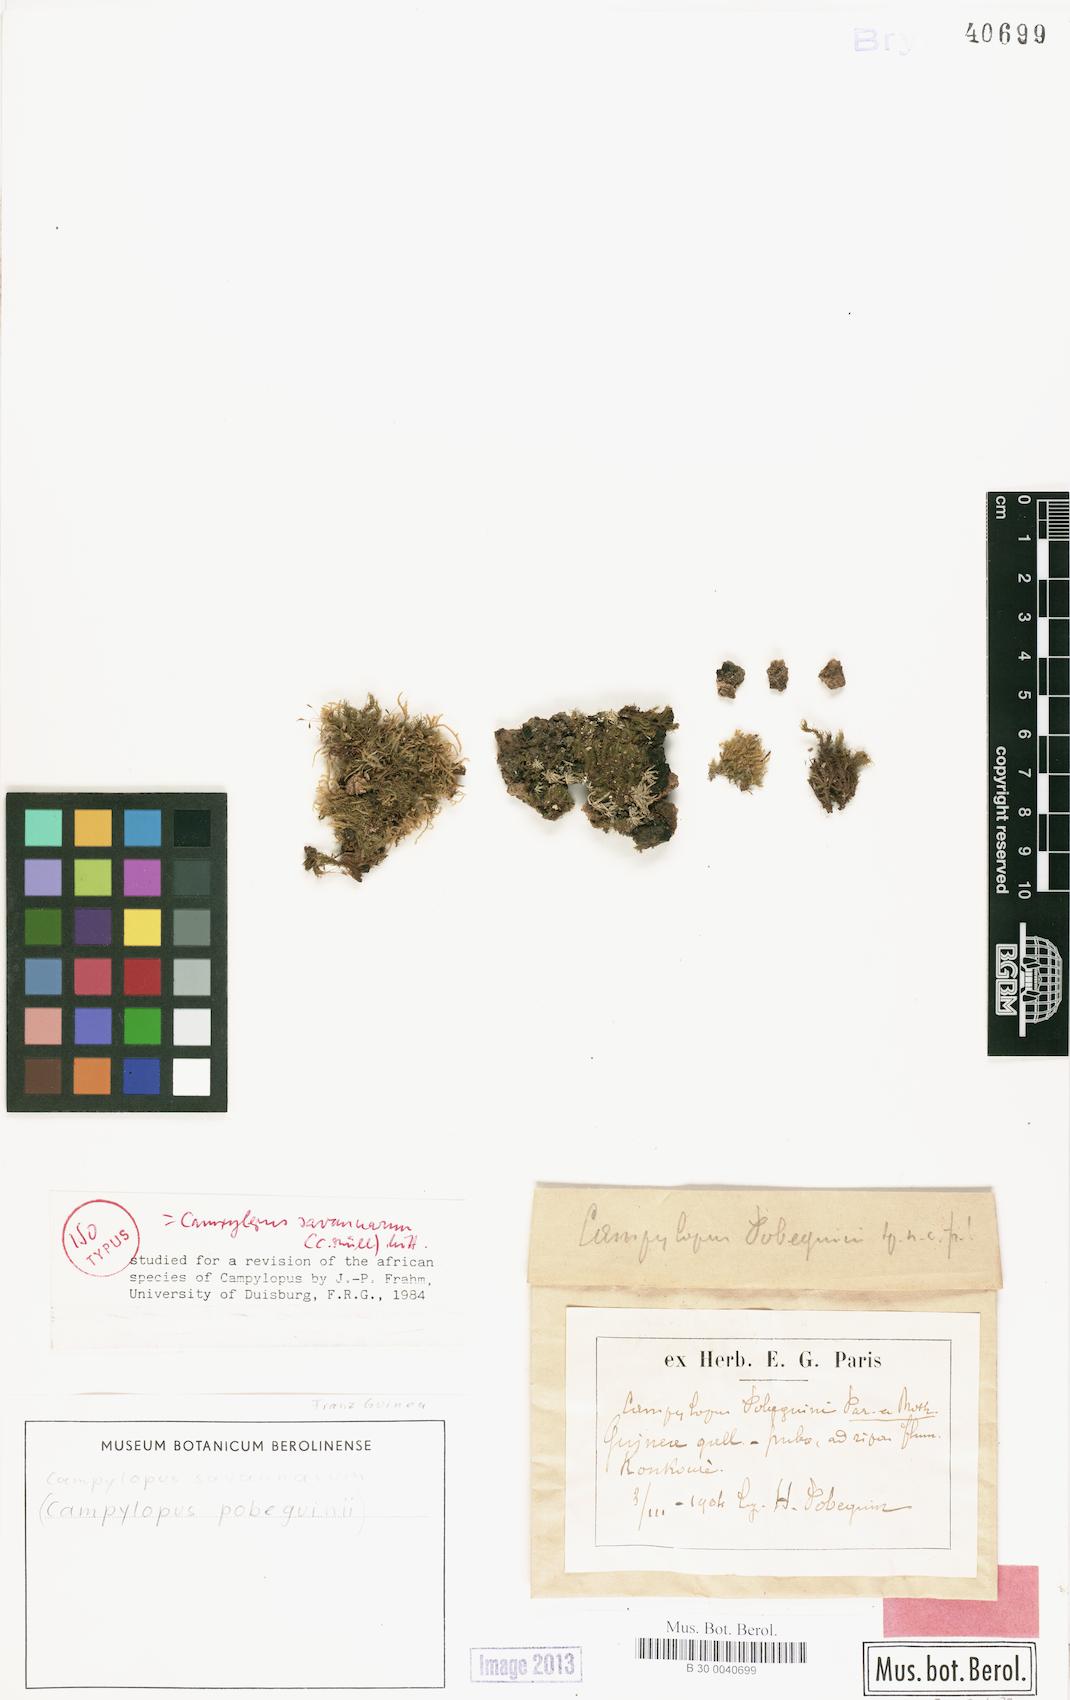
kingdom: Plantae
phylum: Bryophyta
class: Bryopsida
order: Dicranales
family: Leucobryaceae
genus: Campylopus
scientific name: Campylopus savannarum
